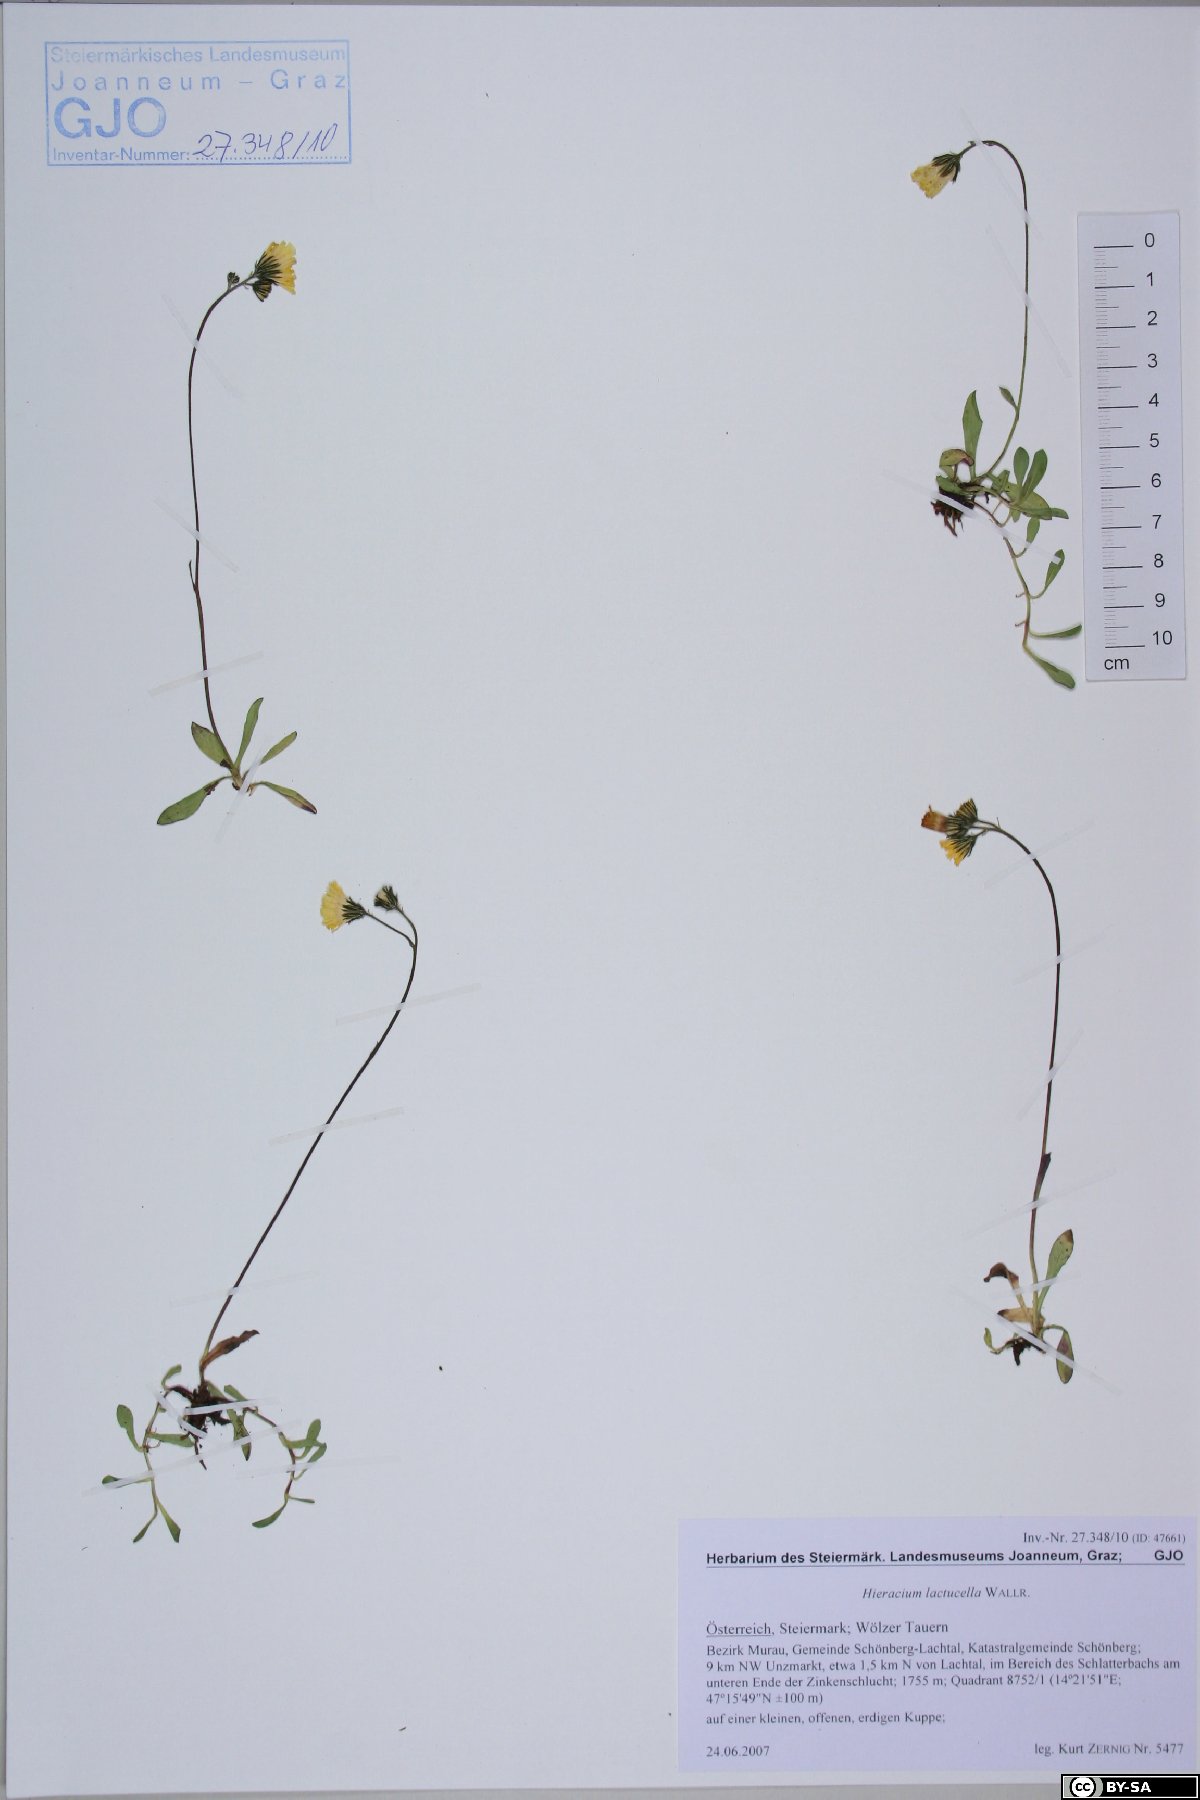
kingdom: Plantae
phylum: Tracheophyta
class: Magnoliopsida
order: Asterales
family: Asteraceae
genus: Pilosella
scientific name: Pilosella lactucella
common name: Glaucous fox-and-cubs
